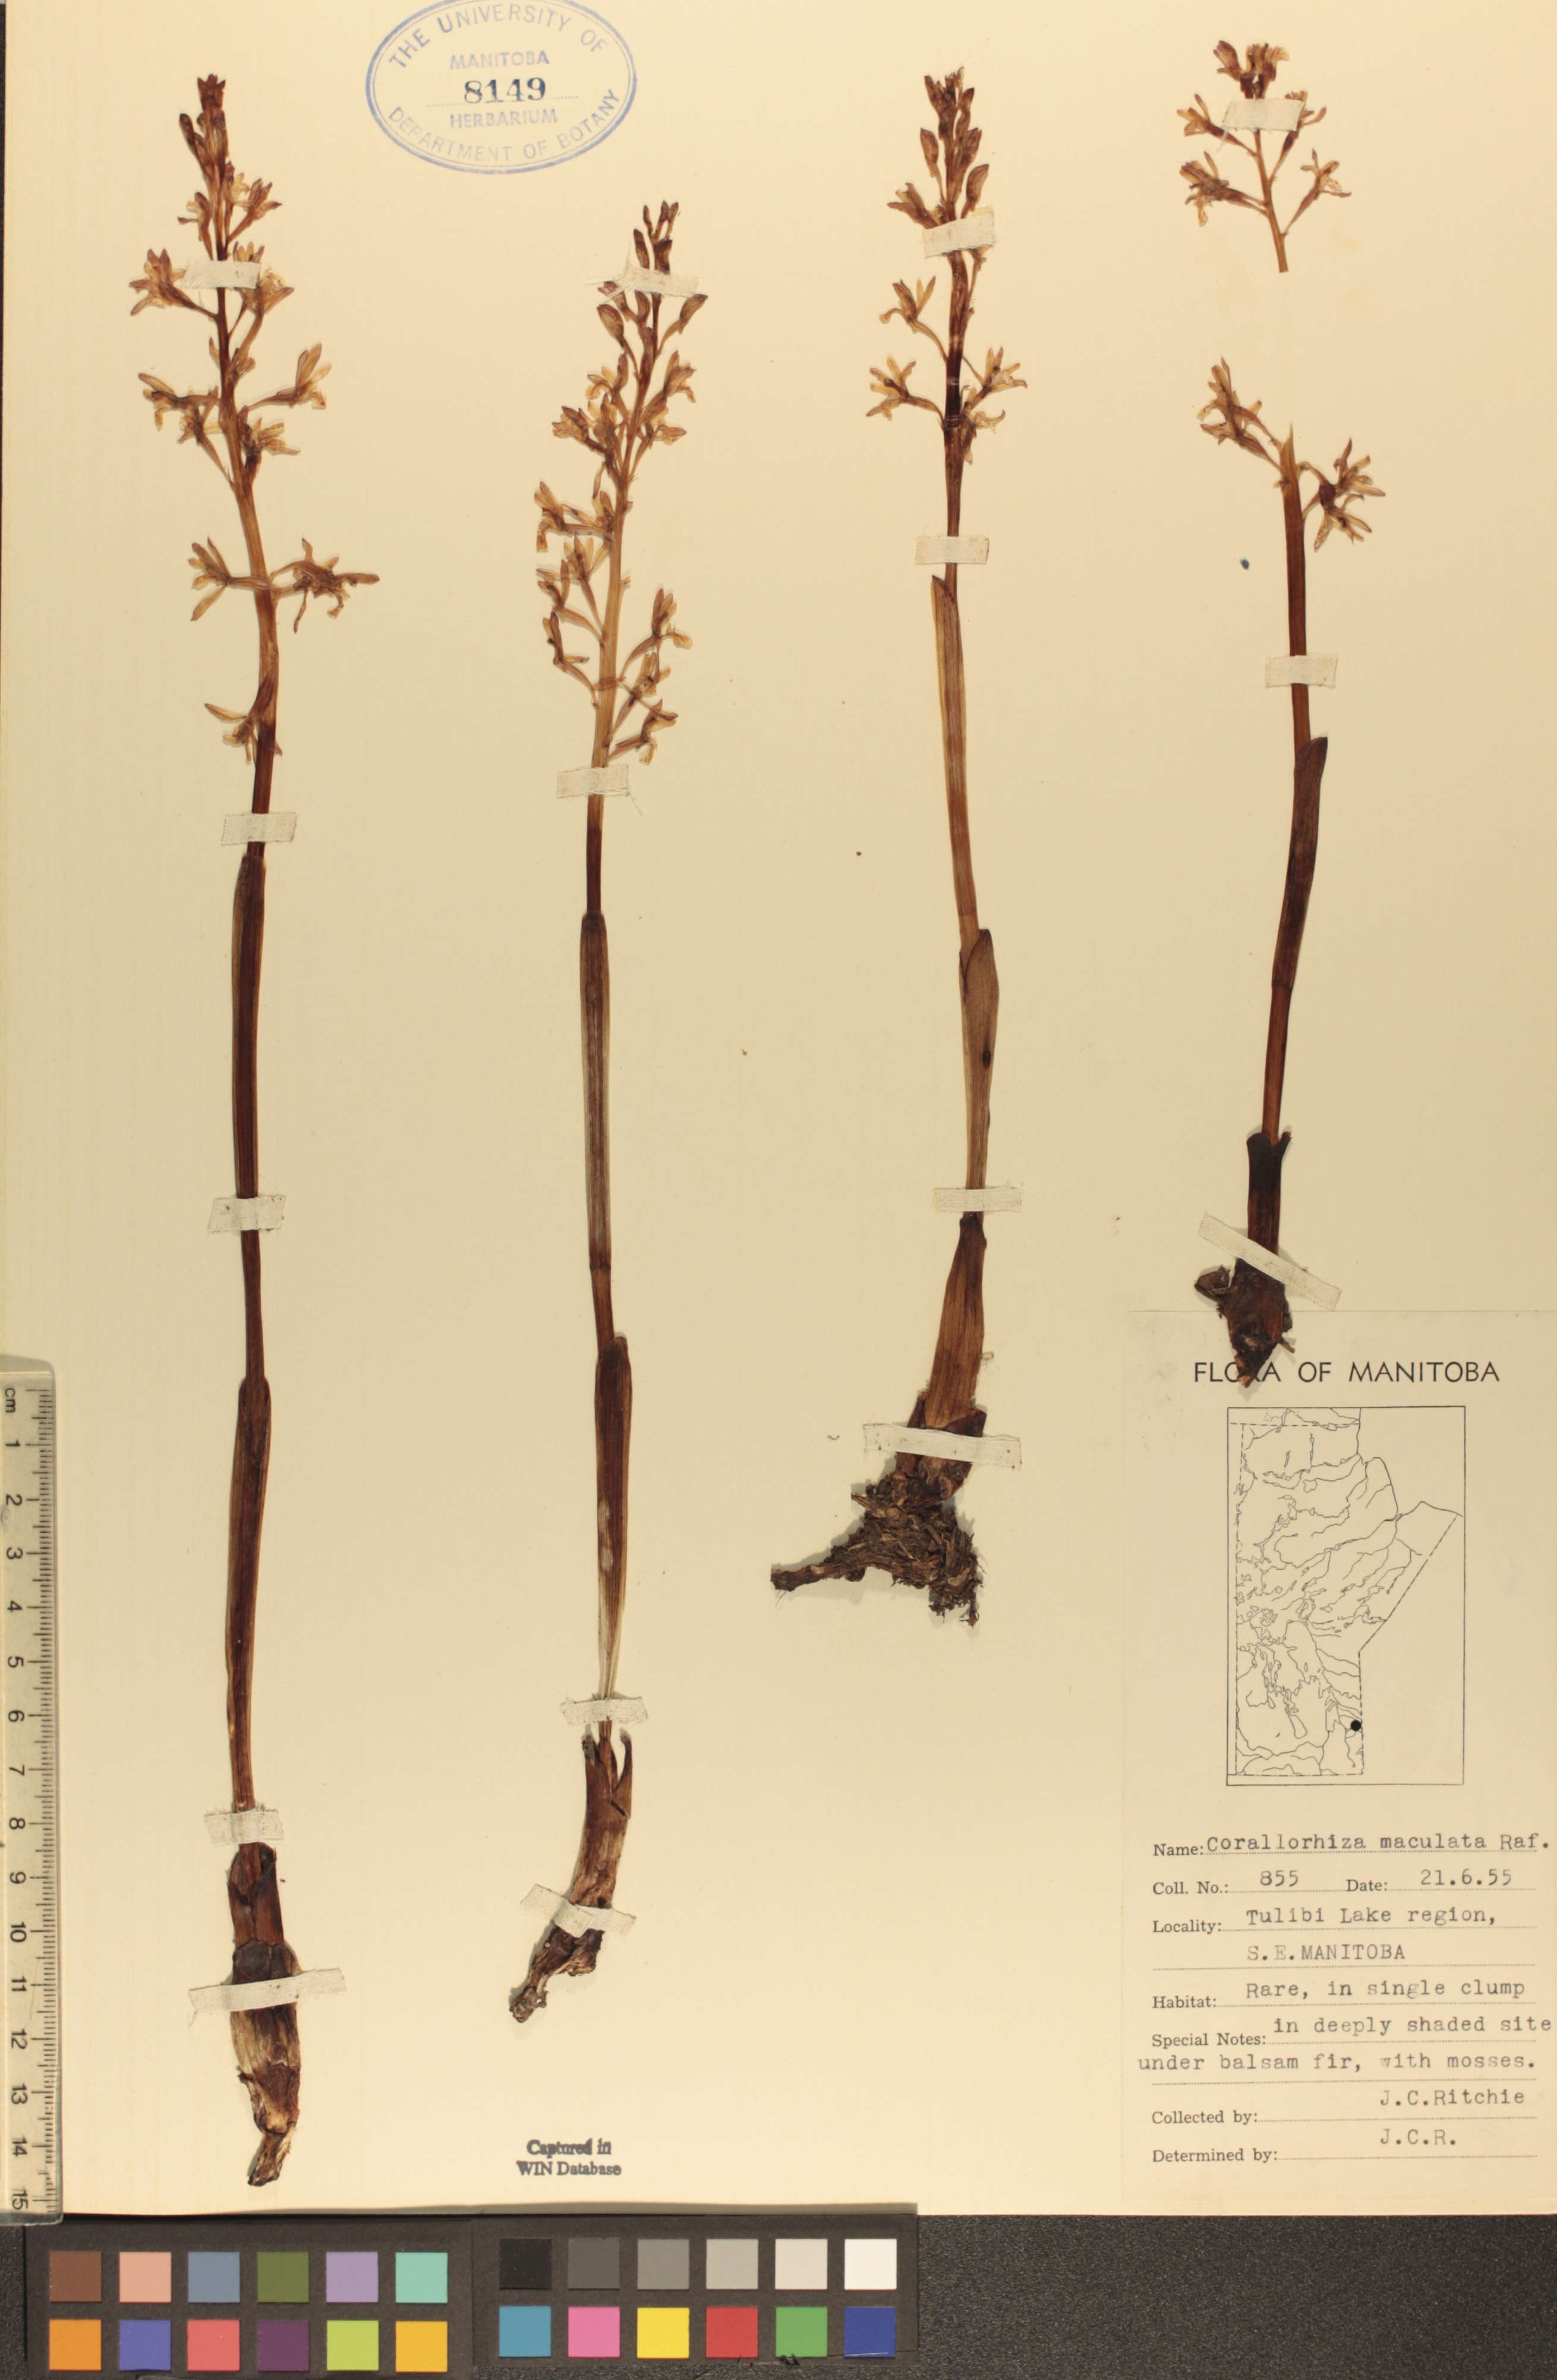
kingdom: Plantae
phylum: Tracheophyta
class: Liliopsida
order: Asparagales
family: Orchidaceae
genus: Corallorhiza
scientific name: Corallorhiza maculata
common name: Spotted coralroot
